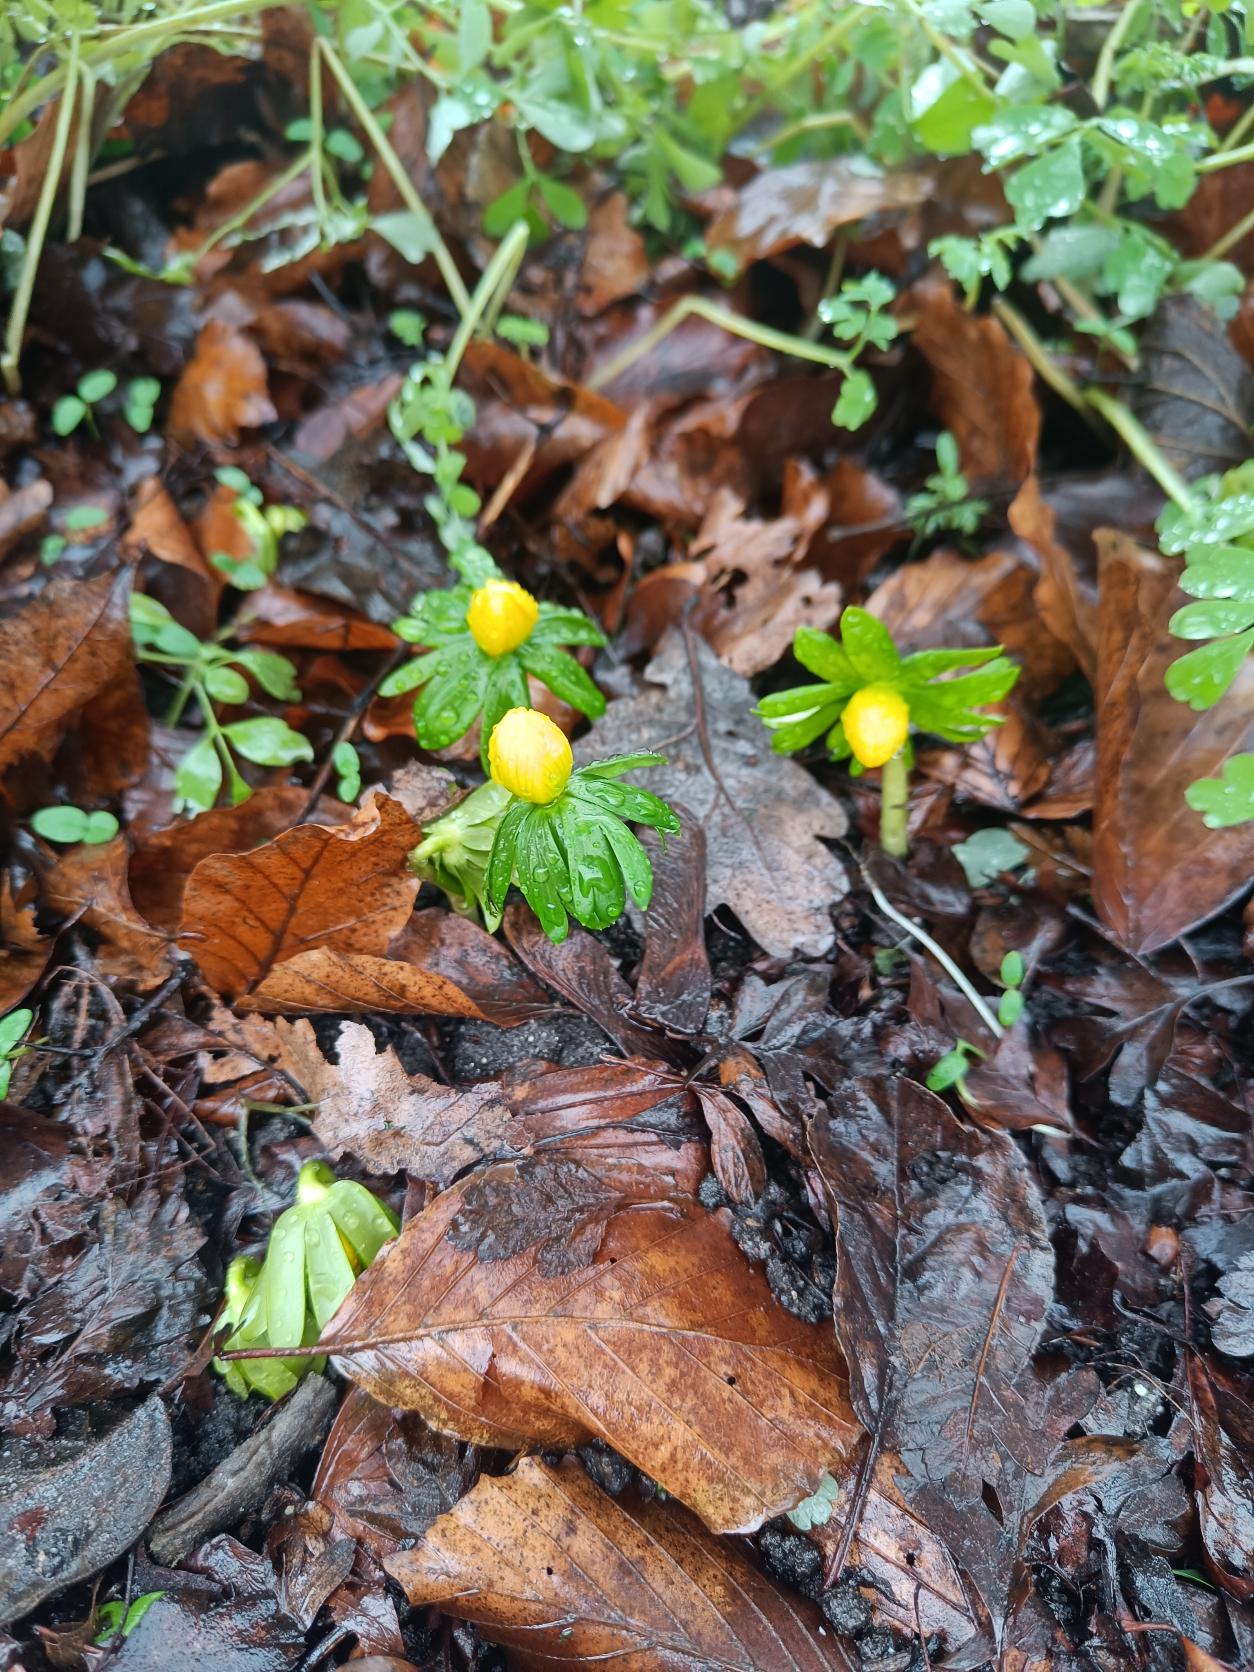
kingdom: Plantae
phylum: Tracheophyta
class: Magnoliopsida
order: Ranunculales
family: Ranunculaceae
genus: Eranthis
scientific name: Eranthis hyemalis
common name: Erantis
